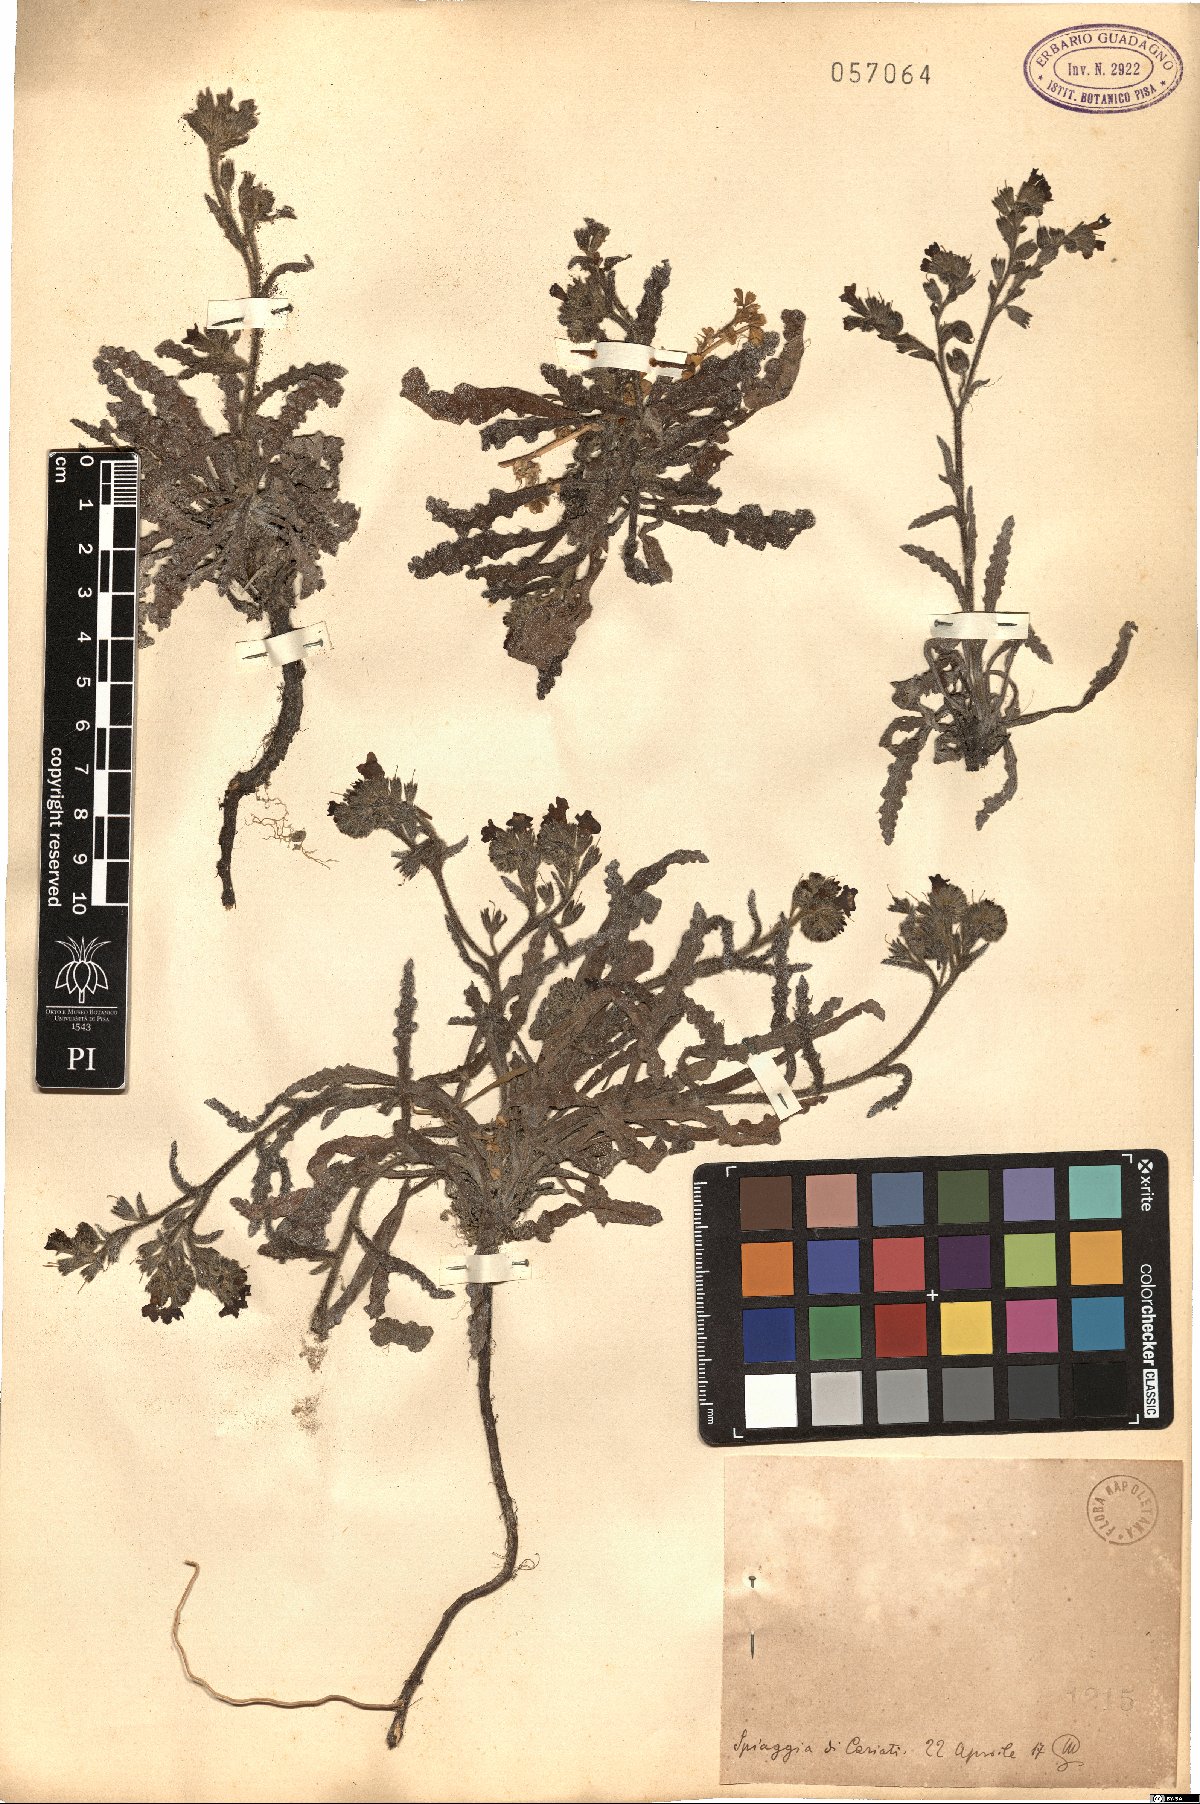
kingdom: Plantae
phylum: Tracheophyta
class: Magnoliopsida
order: Boraginales
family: Boraginaceae
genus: Anchusa
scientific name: Anchusa
